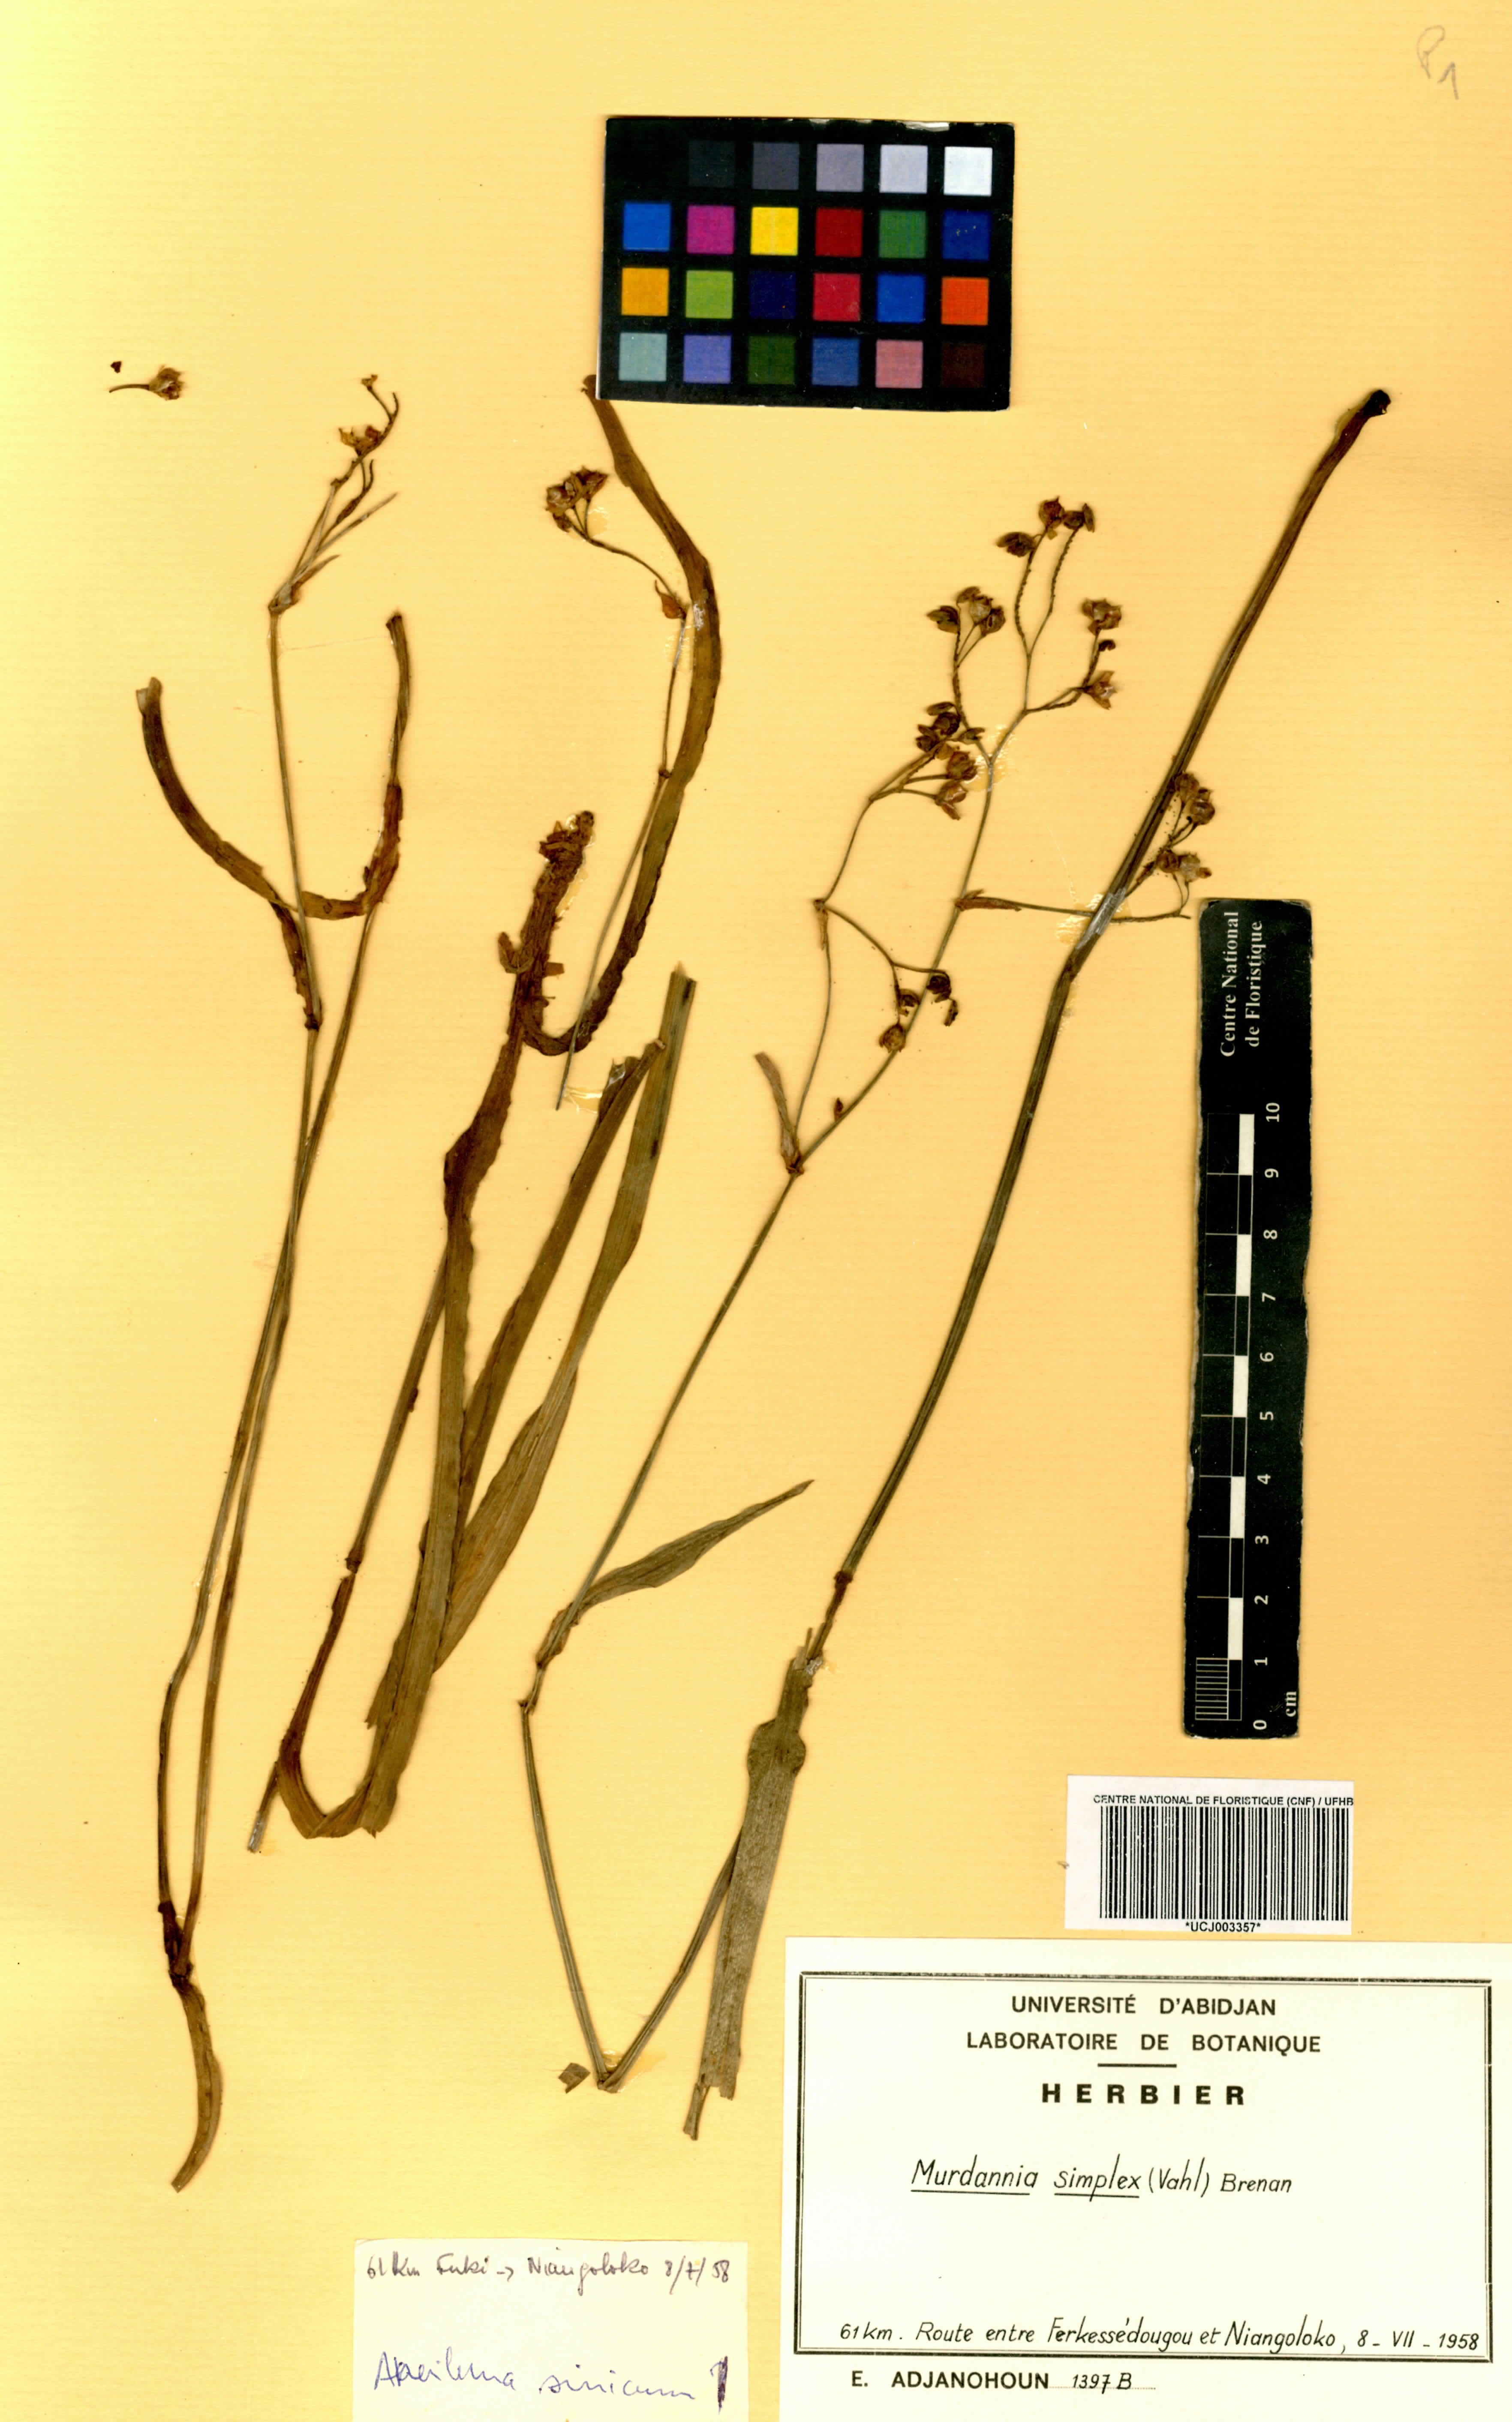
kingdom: Plantae
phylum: Tracheophyta
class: Liliopsida
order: Commelinales
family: Commelinaceae
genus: Murdannia
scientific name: Murdannia simplex
